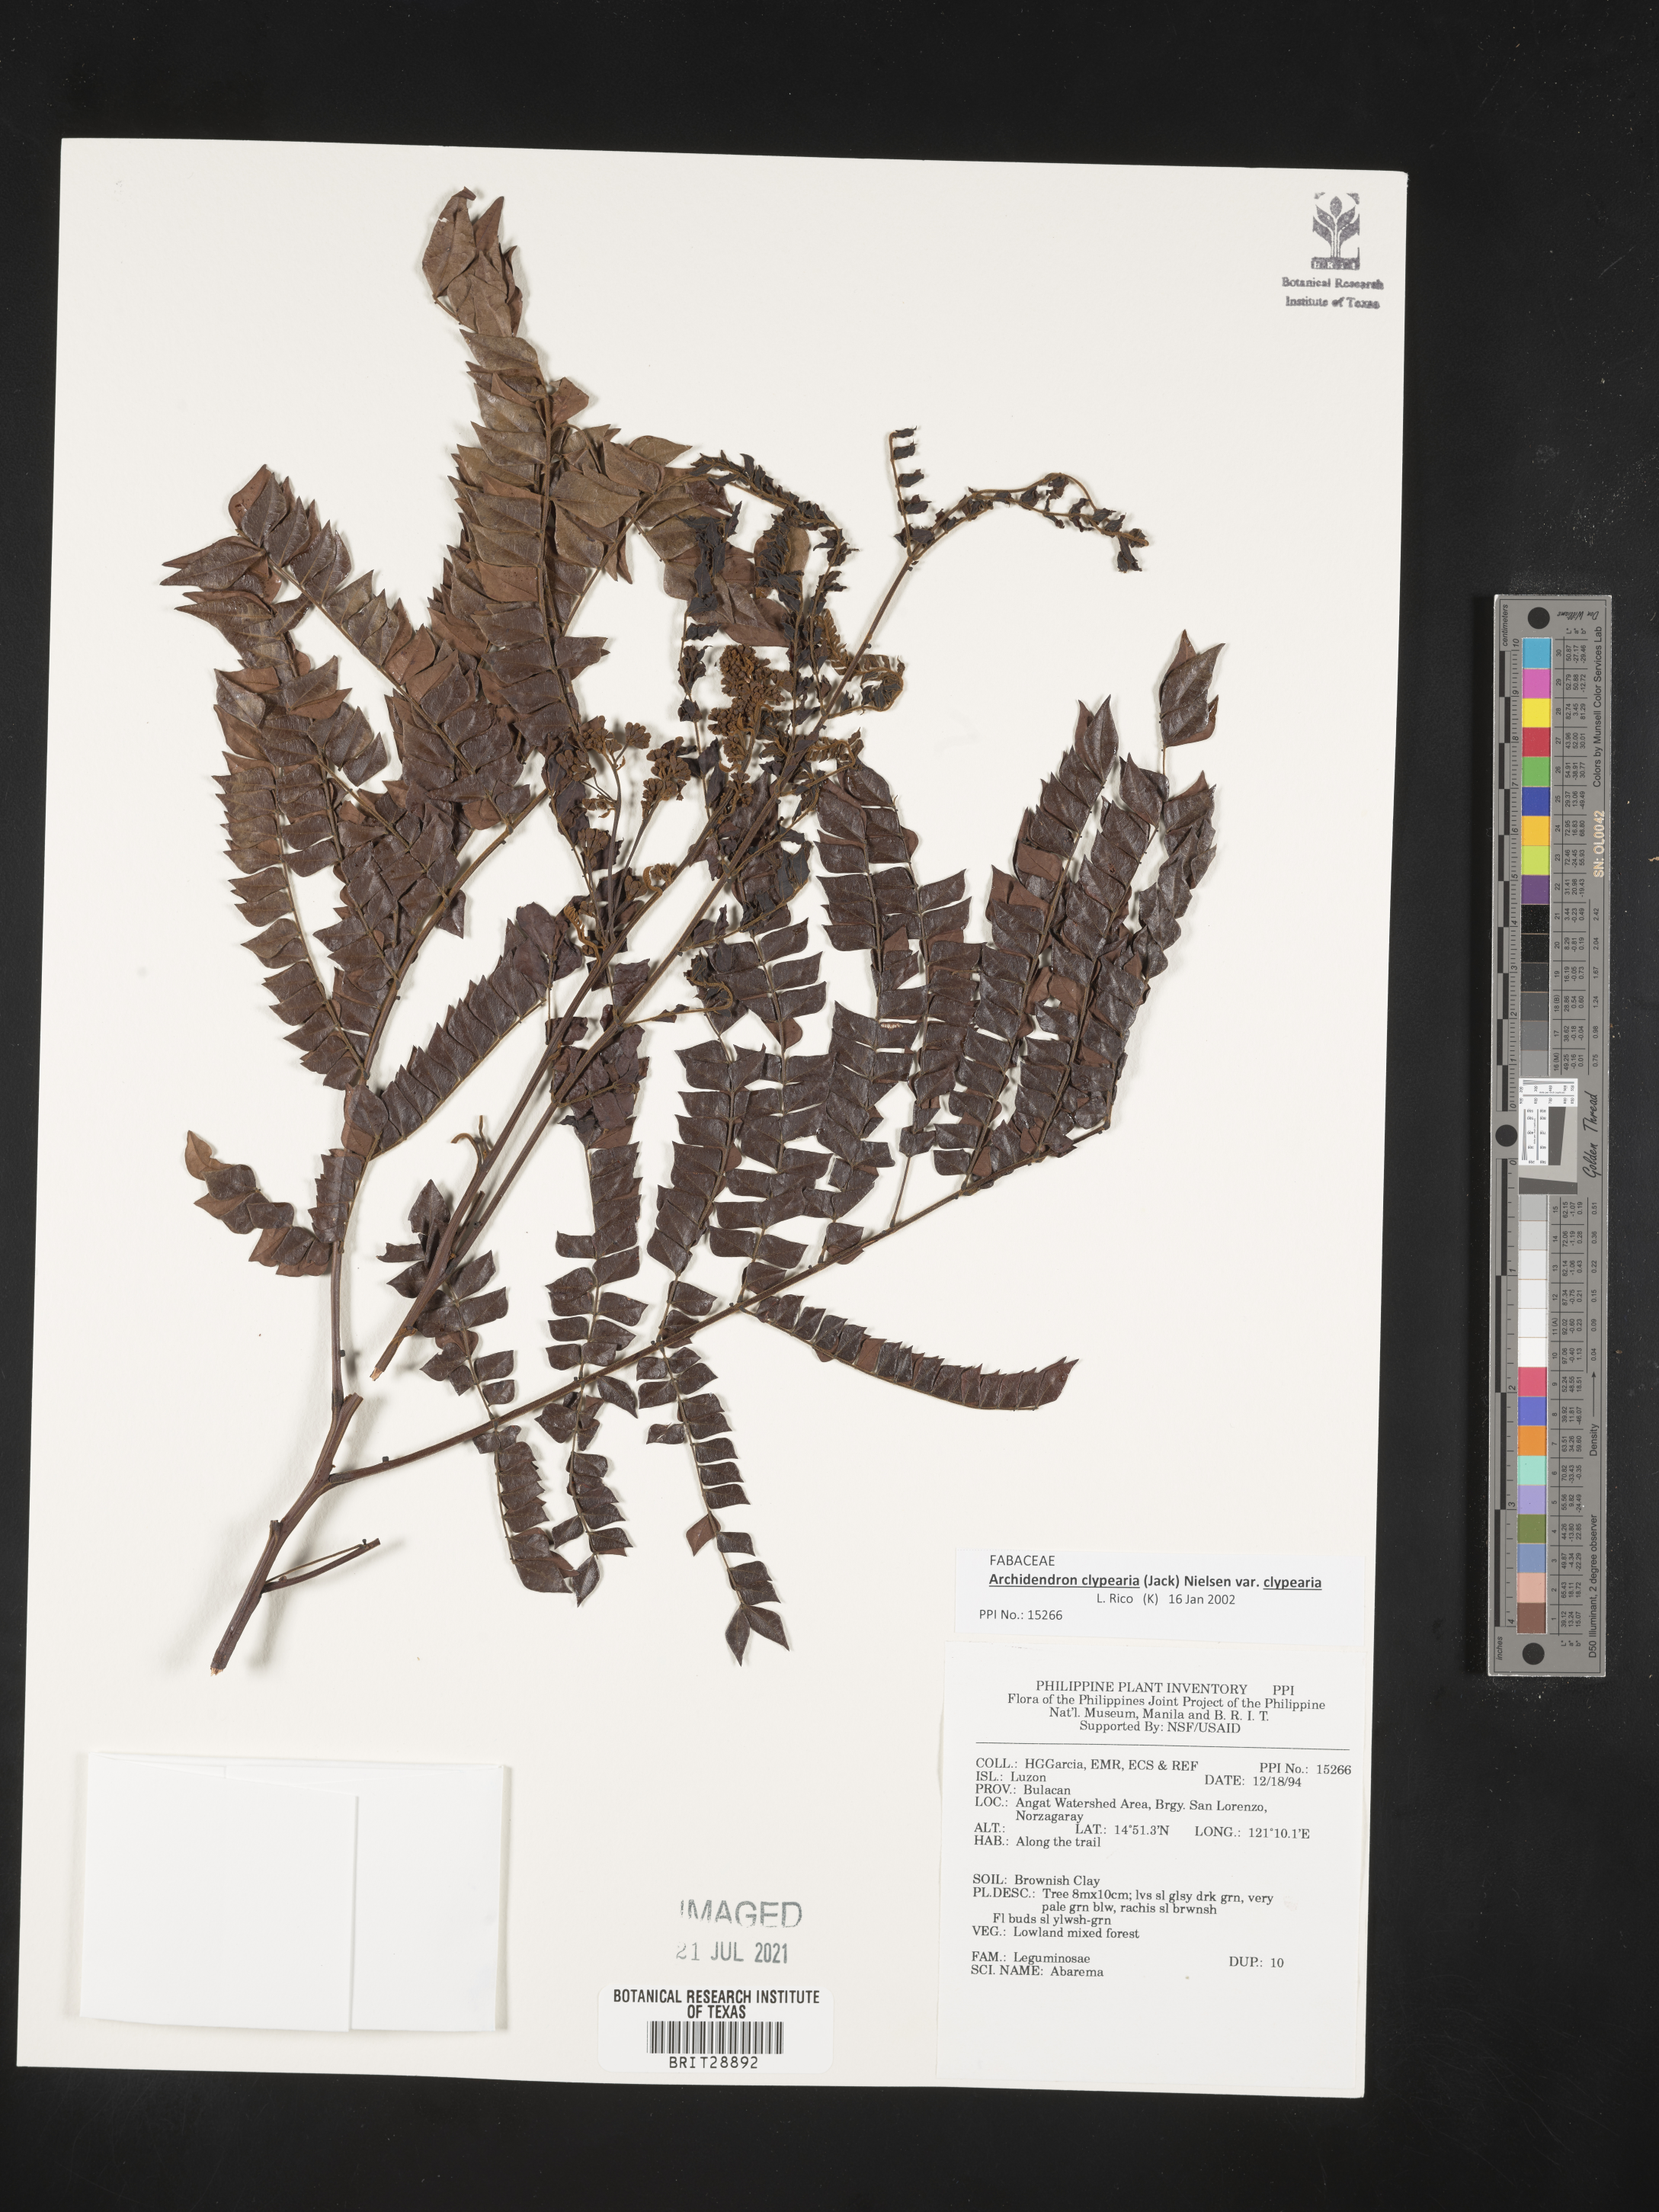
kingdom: Plantae
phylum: Tracheophyta
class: Magnoliopsida
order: Fabales
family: Fabaceae
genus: Abarema
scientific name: Abarema
